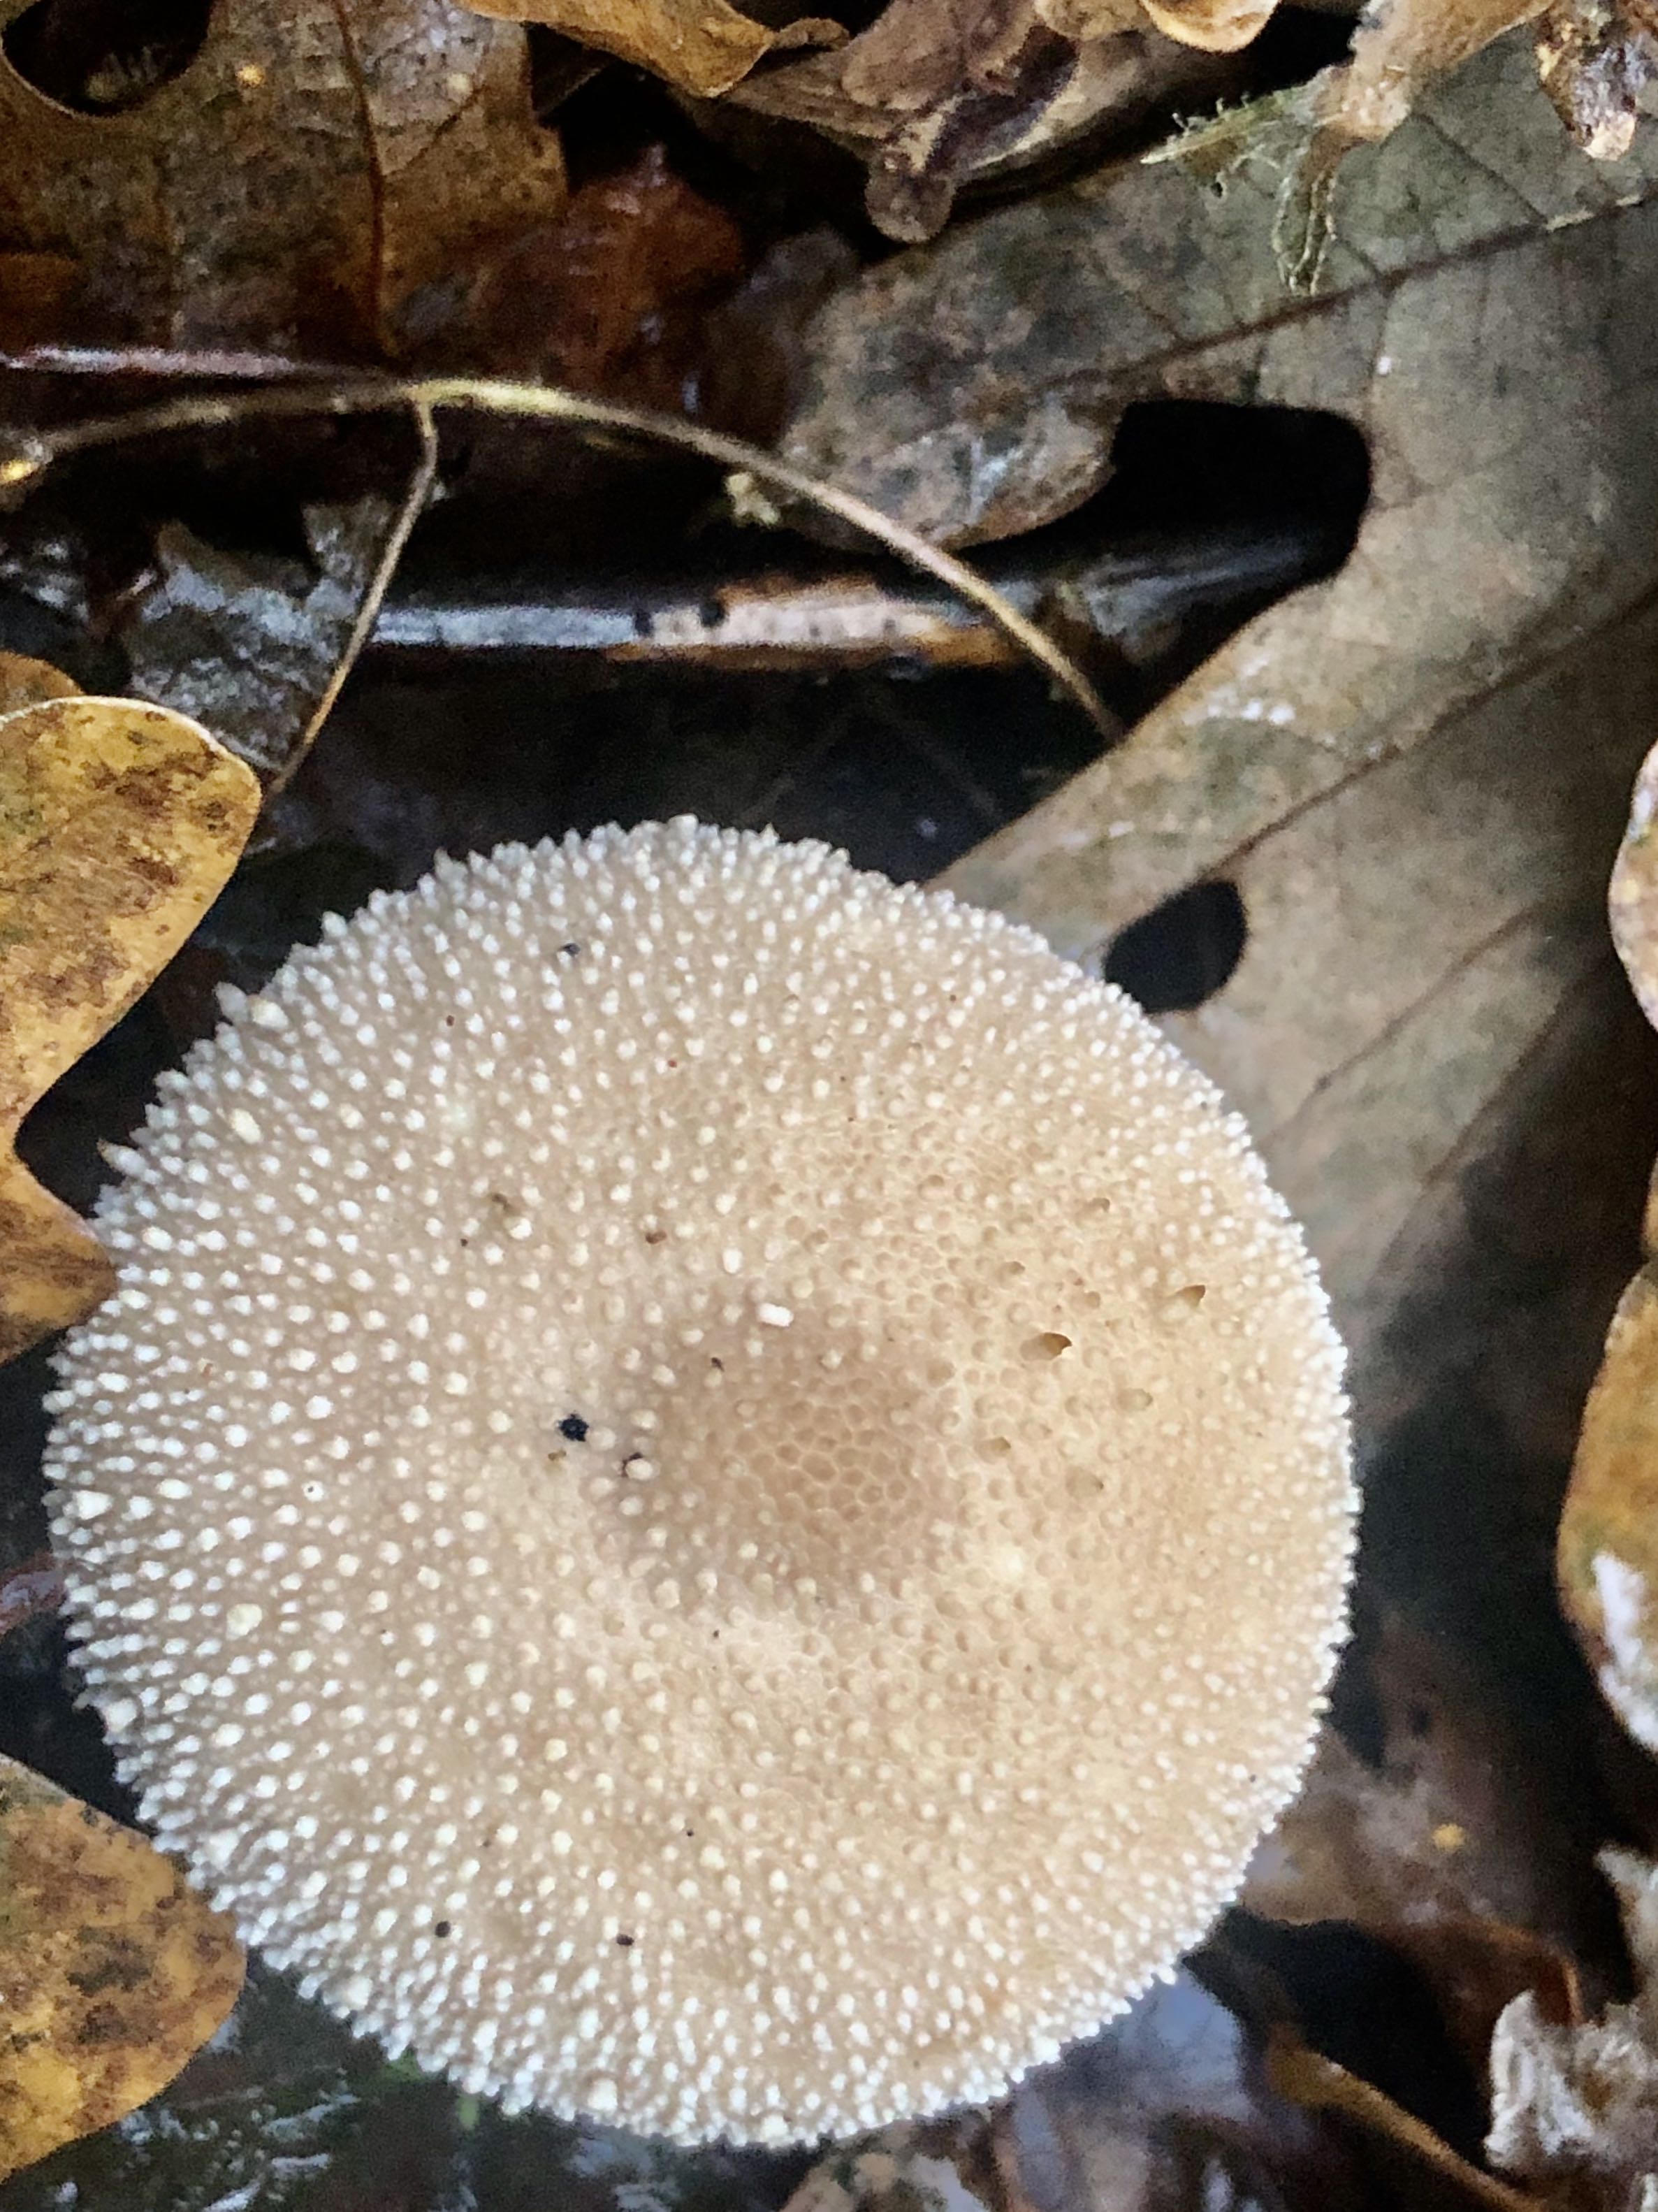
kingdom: Fungi
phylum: Basidiomycota
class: Agaricomycetes
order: Agaricales
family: Lycoperdaceae
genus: Lycoperdon
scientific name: Lycoperdon perlatum
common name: krystal-støvbold
